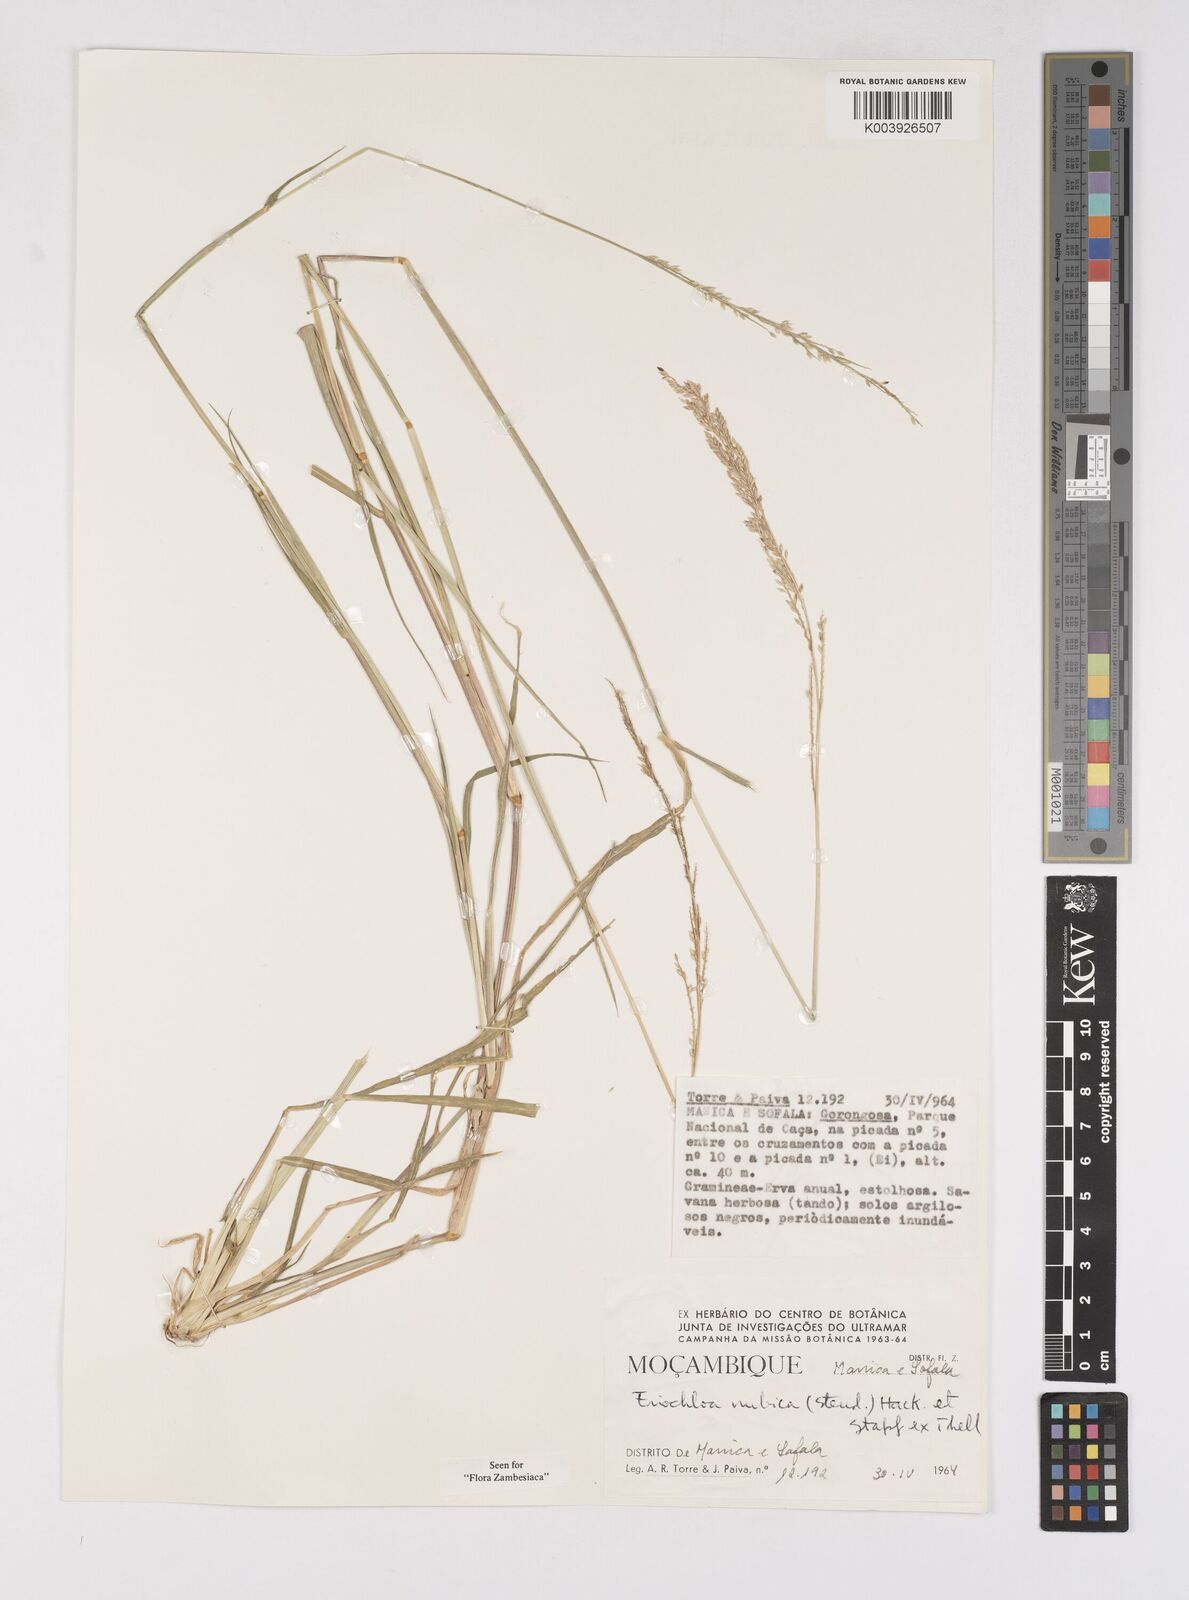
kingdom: Plantae
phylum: Tracheophyta
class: Liliopsida
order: Poales
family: Poaceae
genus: Eriochloa
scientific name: Eriochloa barbatus
